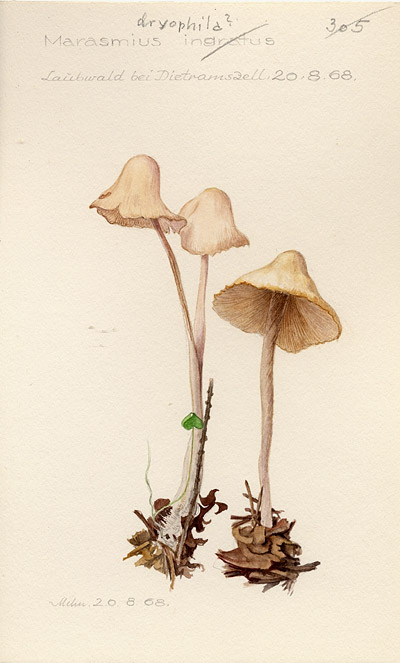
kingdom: Fungi
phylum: Basidiomycota
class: Agaricomycetes
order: Agaricales
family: Omphalotaceae
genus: Gymnopus
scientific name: Gymnopus dryophilus
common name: Penny top
